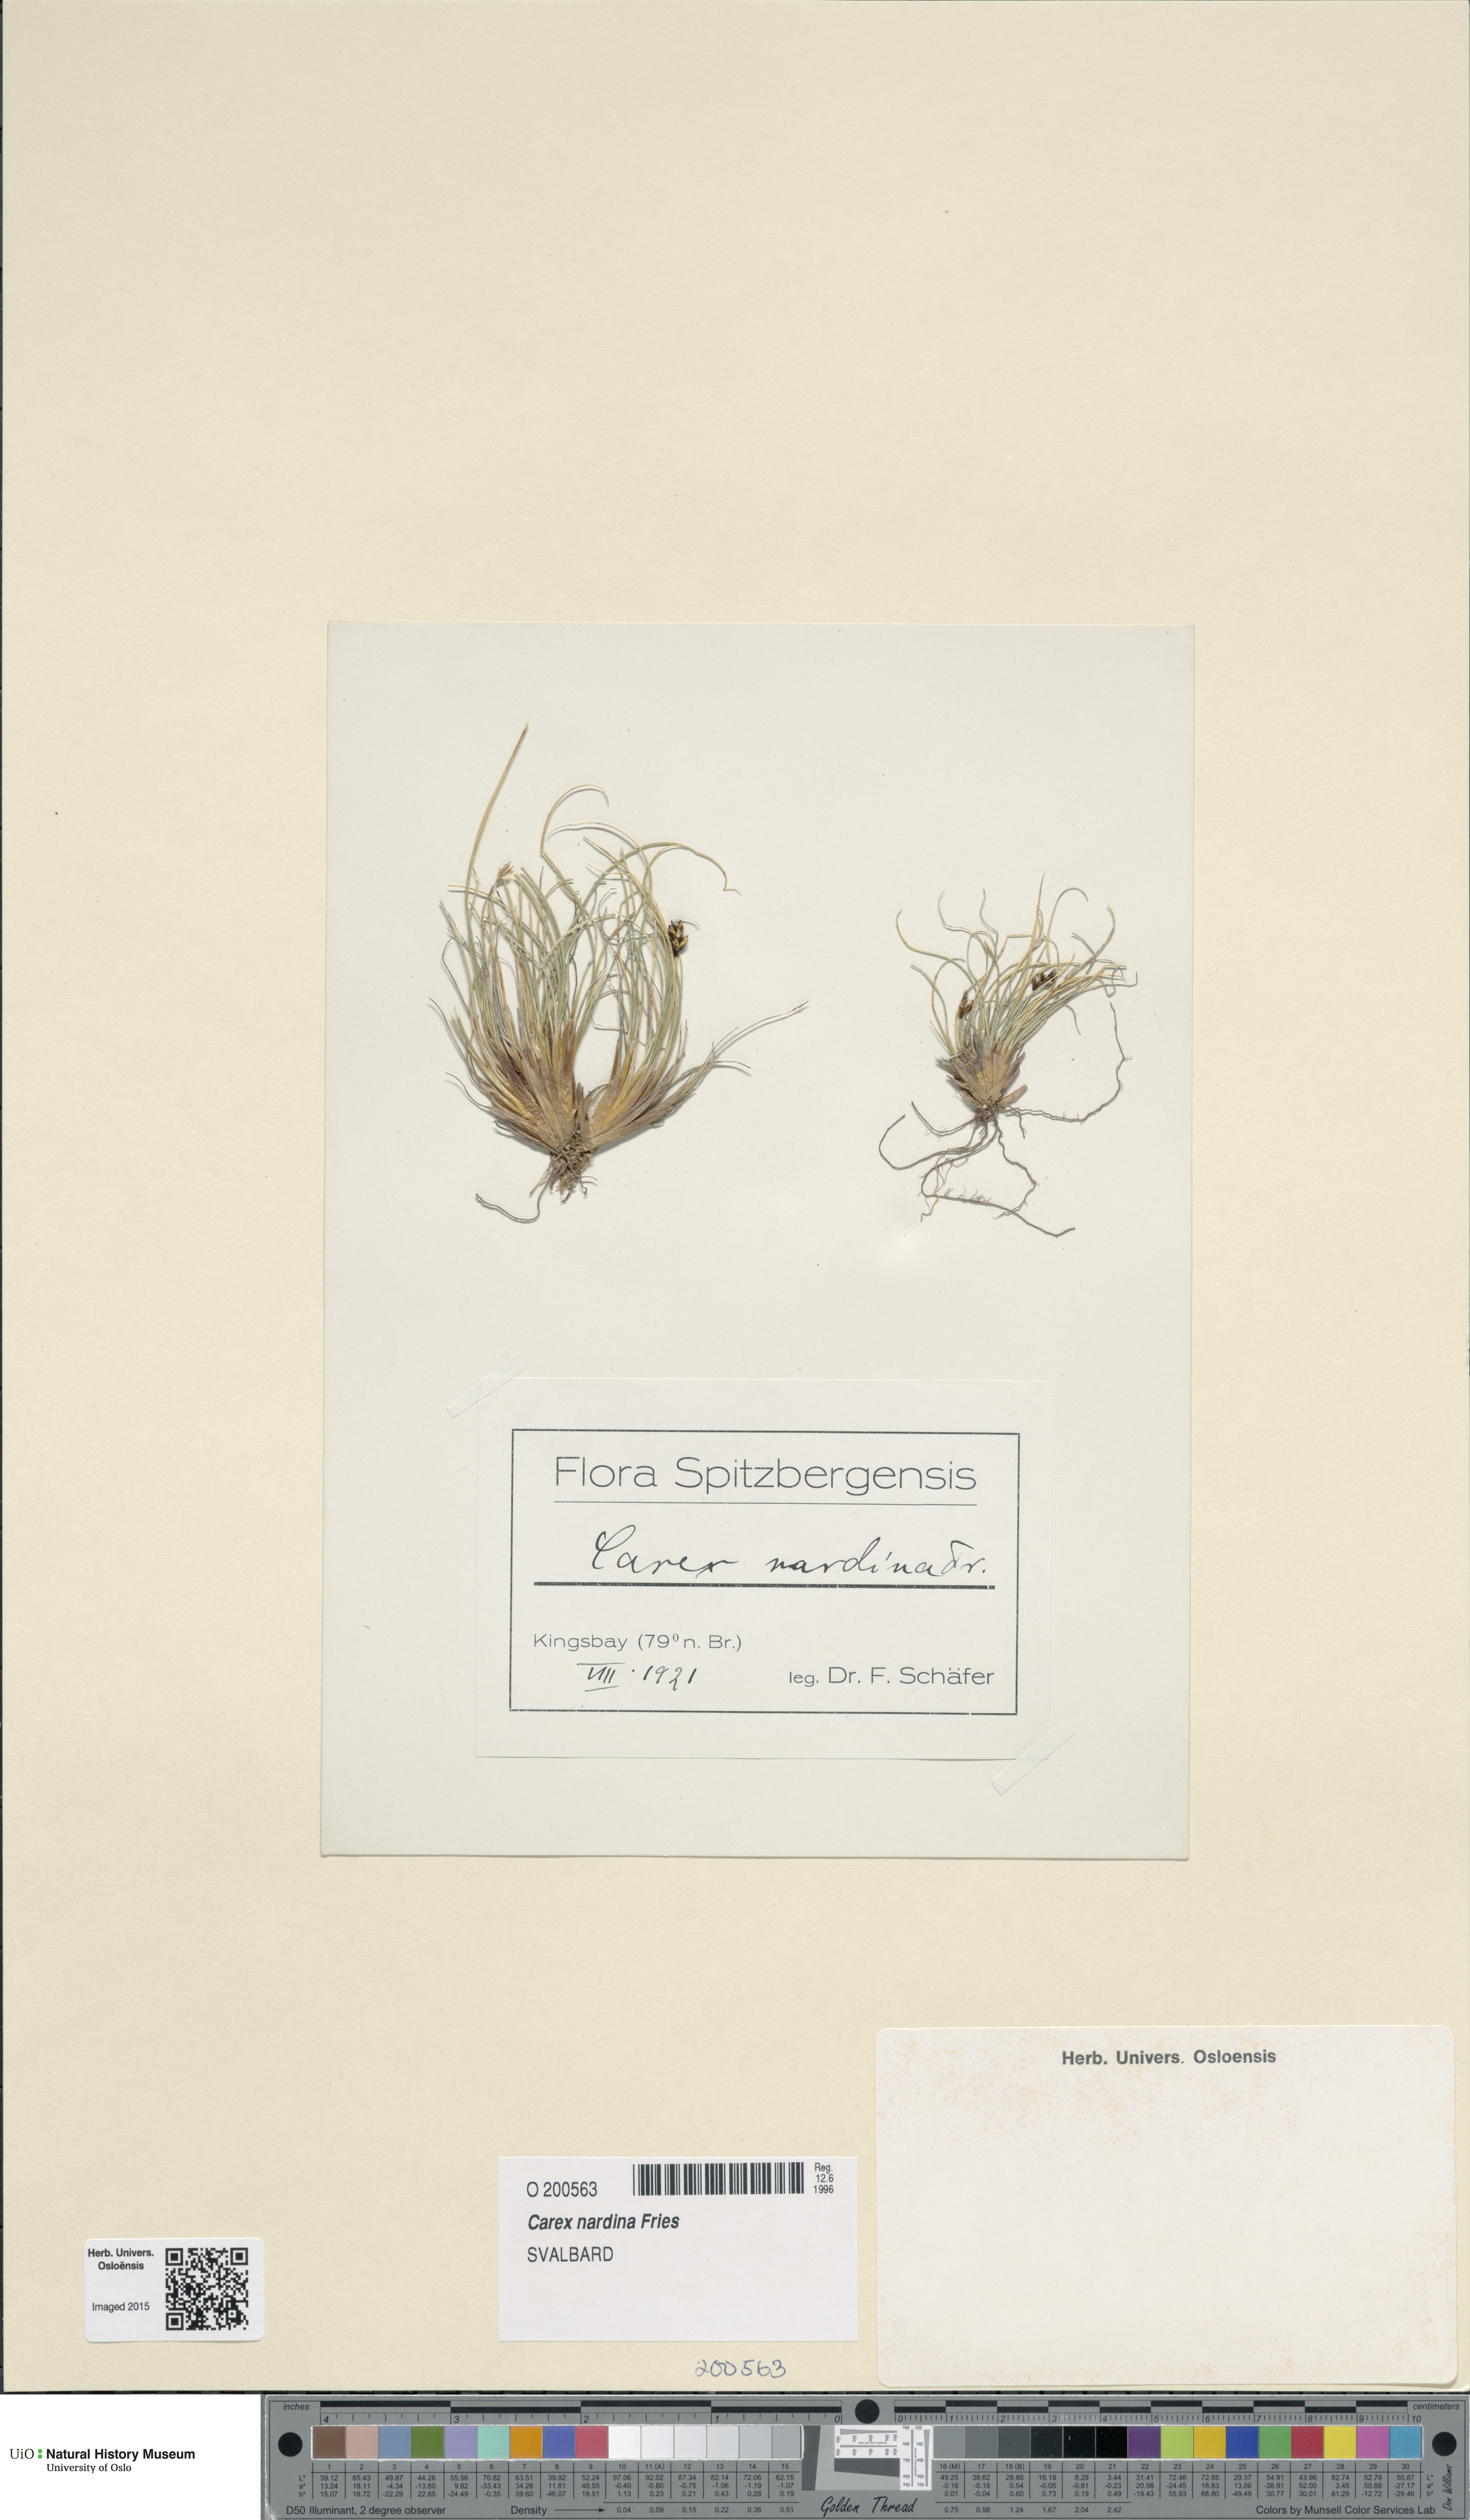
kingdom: Plantae
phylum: Tracheophyta
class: Liliopsida
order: Poales
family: Cyperaceae
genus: Carex
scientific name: Carex nardina
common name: Nard sedge
